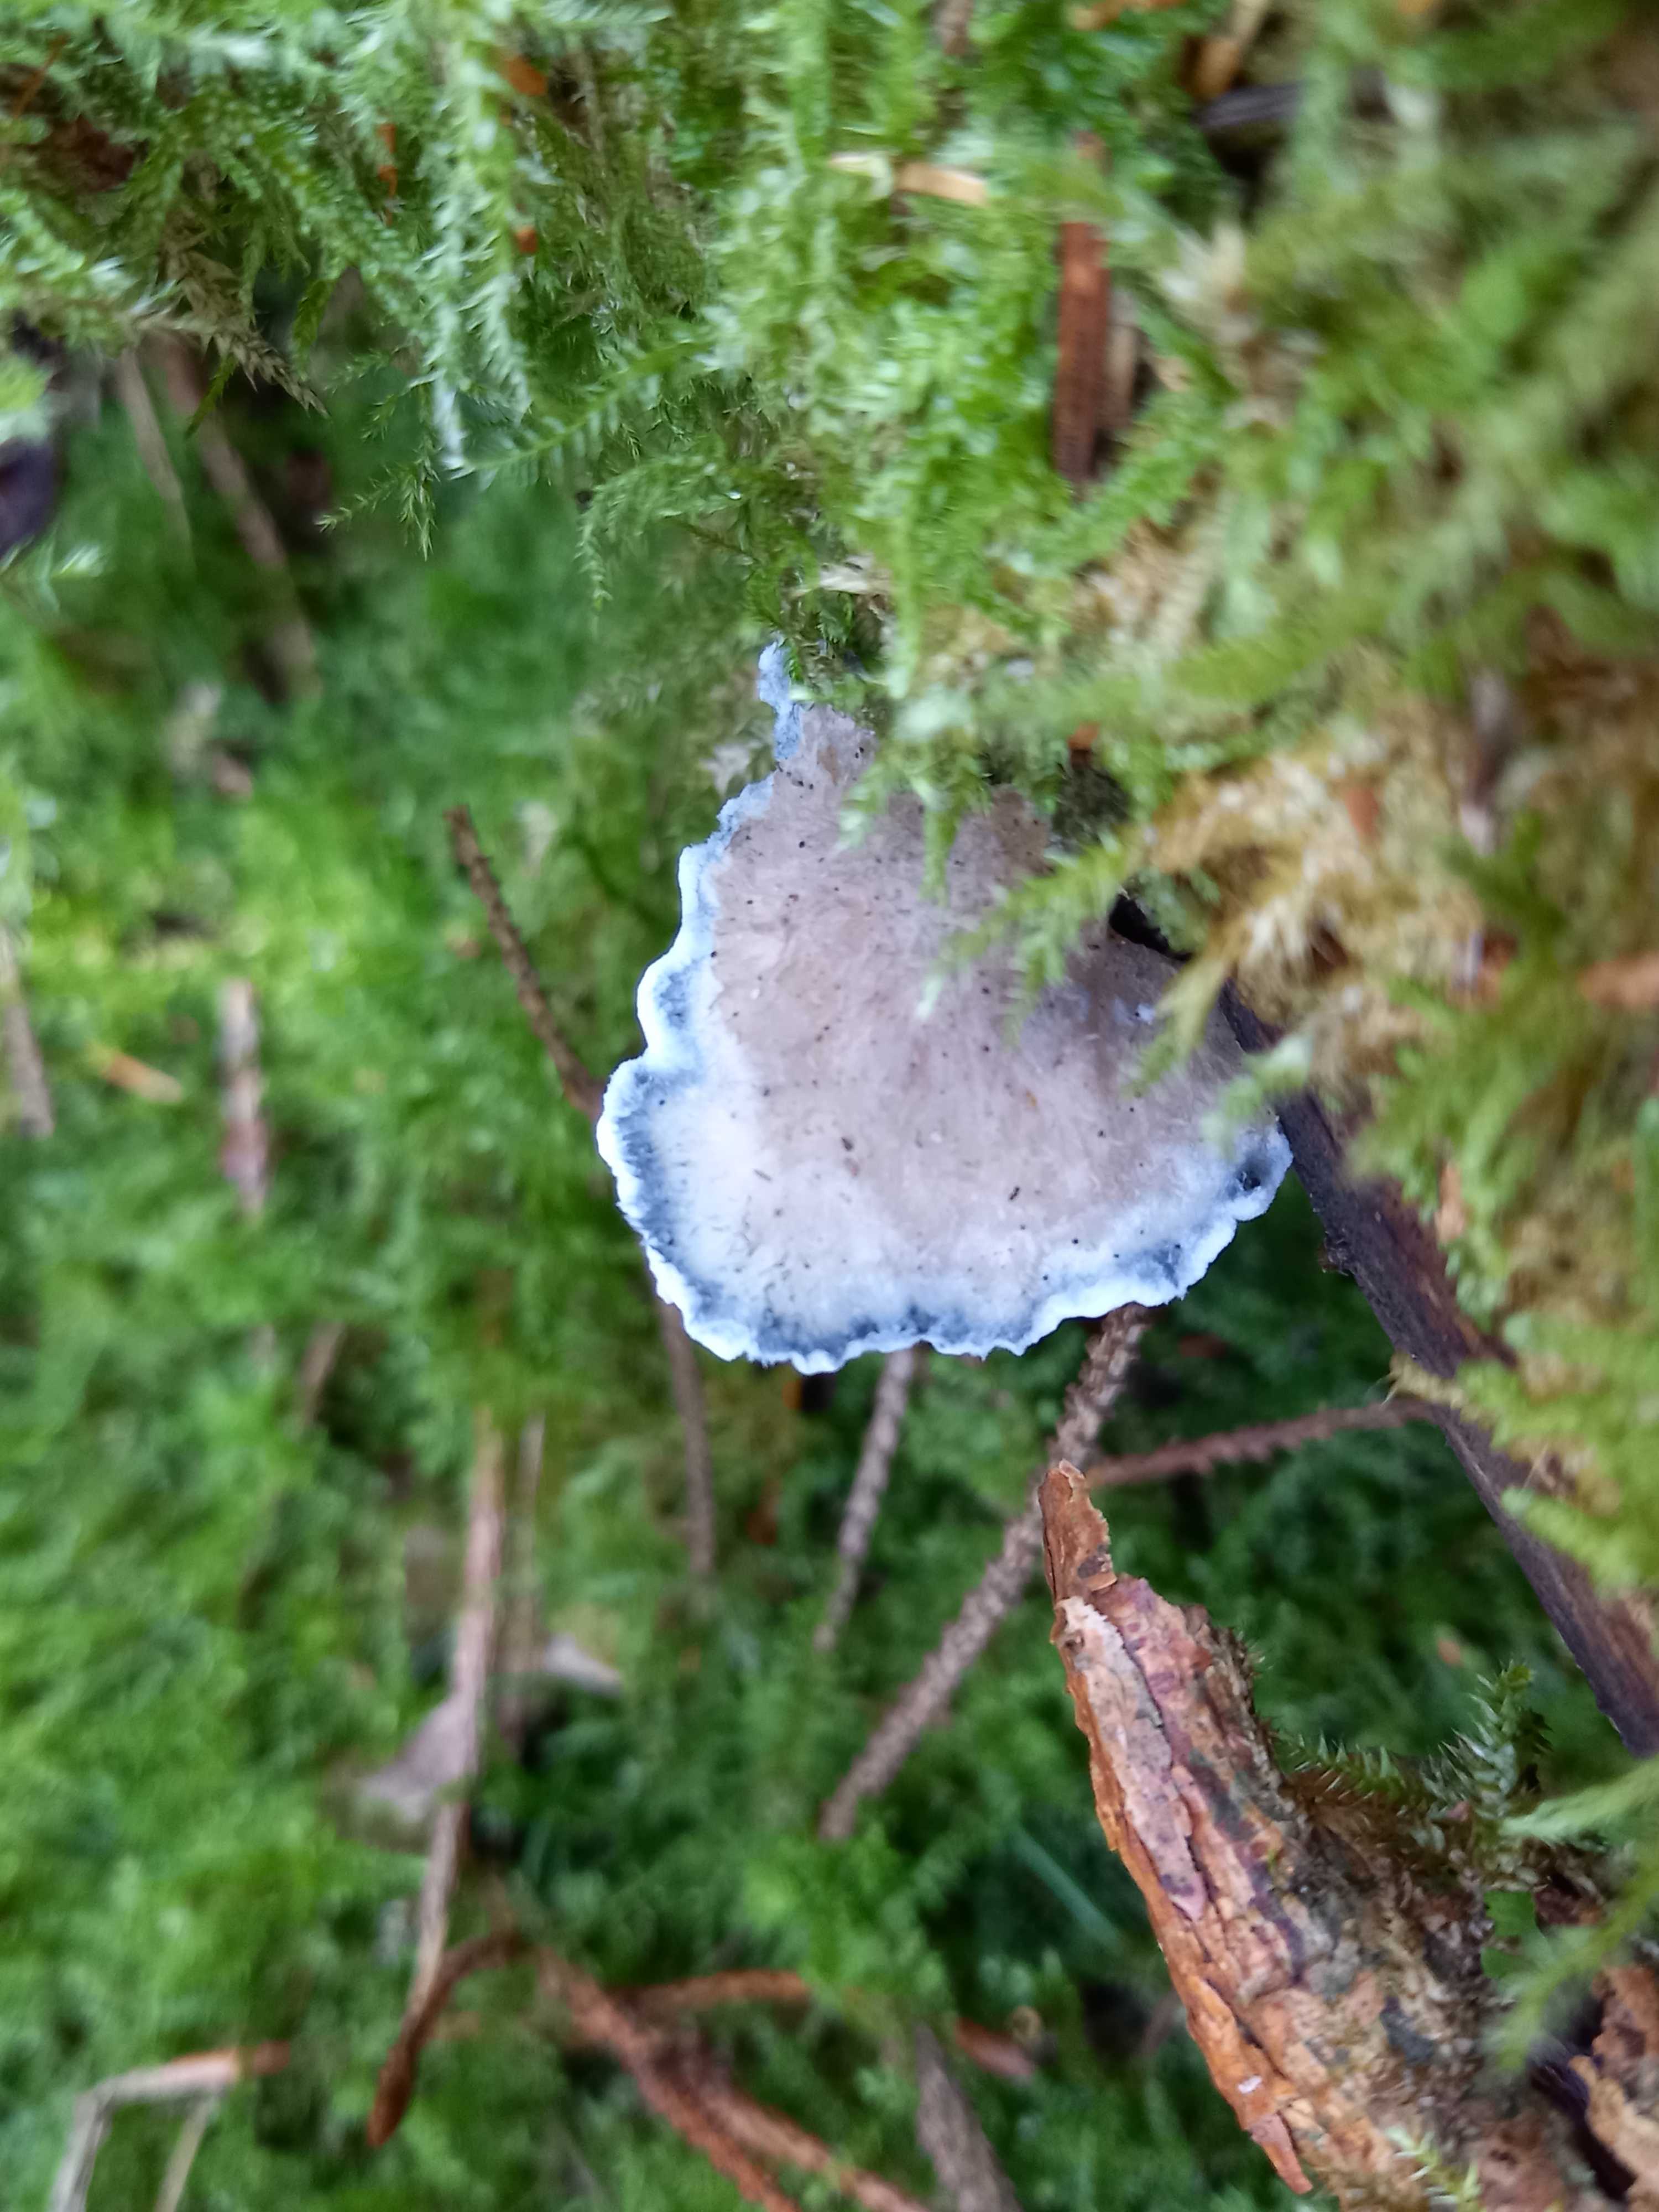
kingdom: Fungi
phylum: Basidiomycota
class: Agaricomycetes
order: Polyporales
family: Polyporaceae
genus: Cyanosporus
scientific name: Cyanosporus caesius
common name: blålig kødporesvamp
